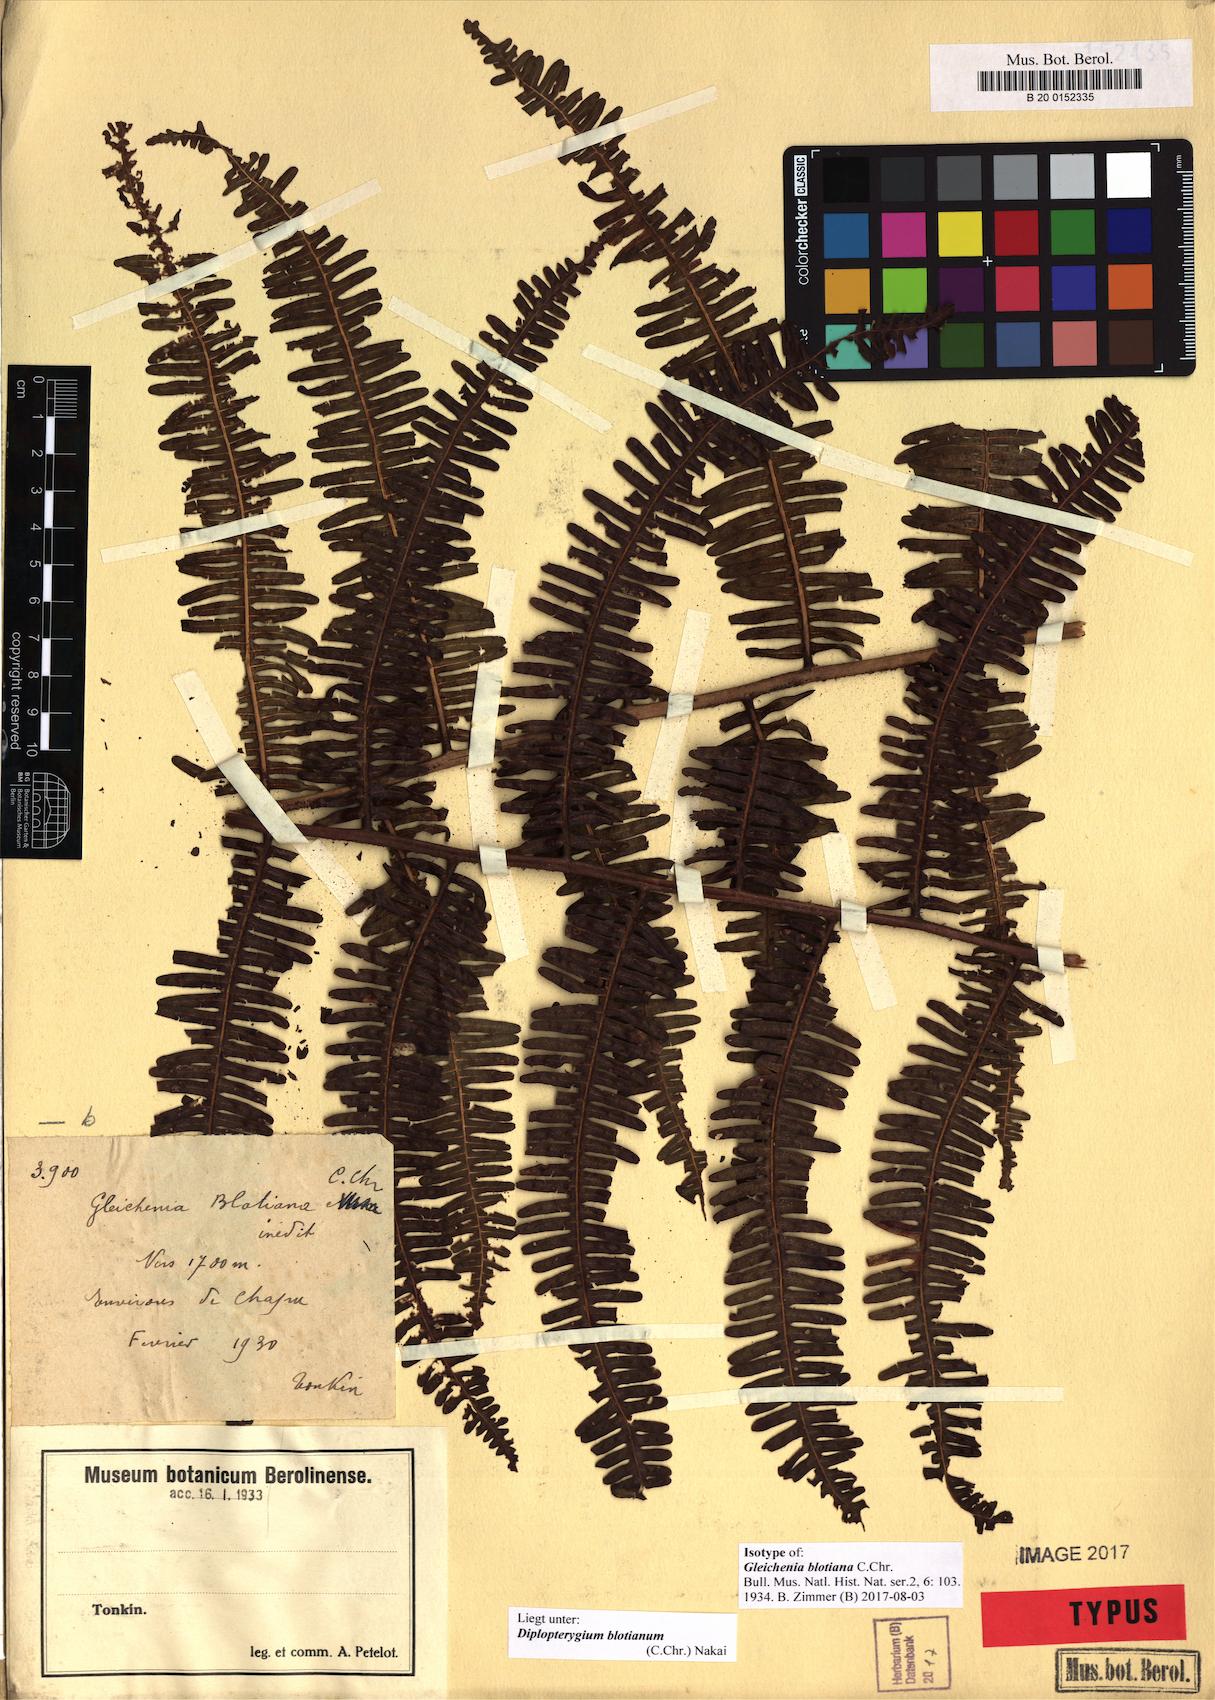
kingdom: Plantae
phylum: Tracheophyta
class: Polypodiopsida
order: Gleicheniales
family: Gleicheniaceae
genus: Diplopterygium
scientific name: Diplopterygium blotianum
